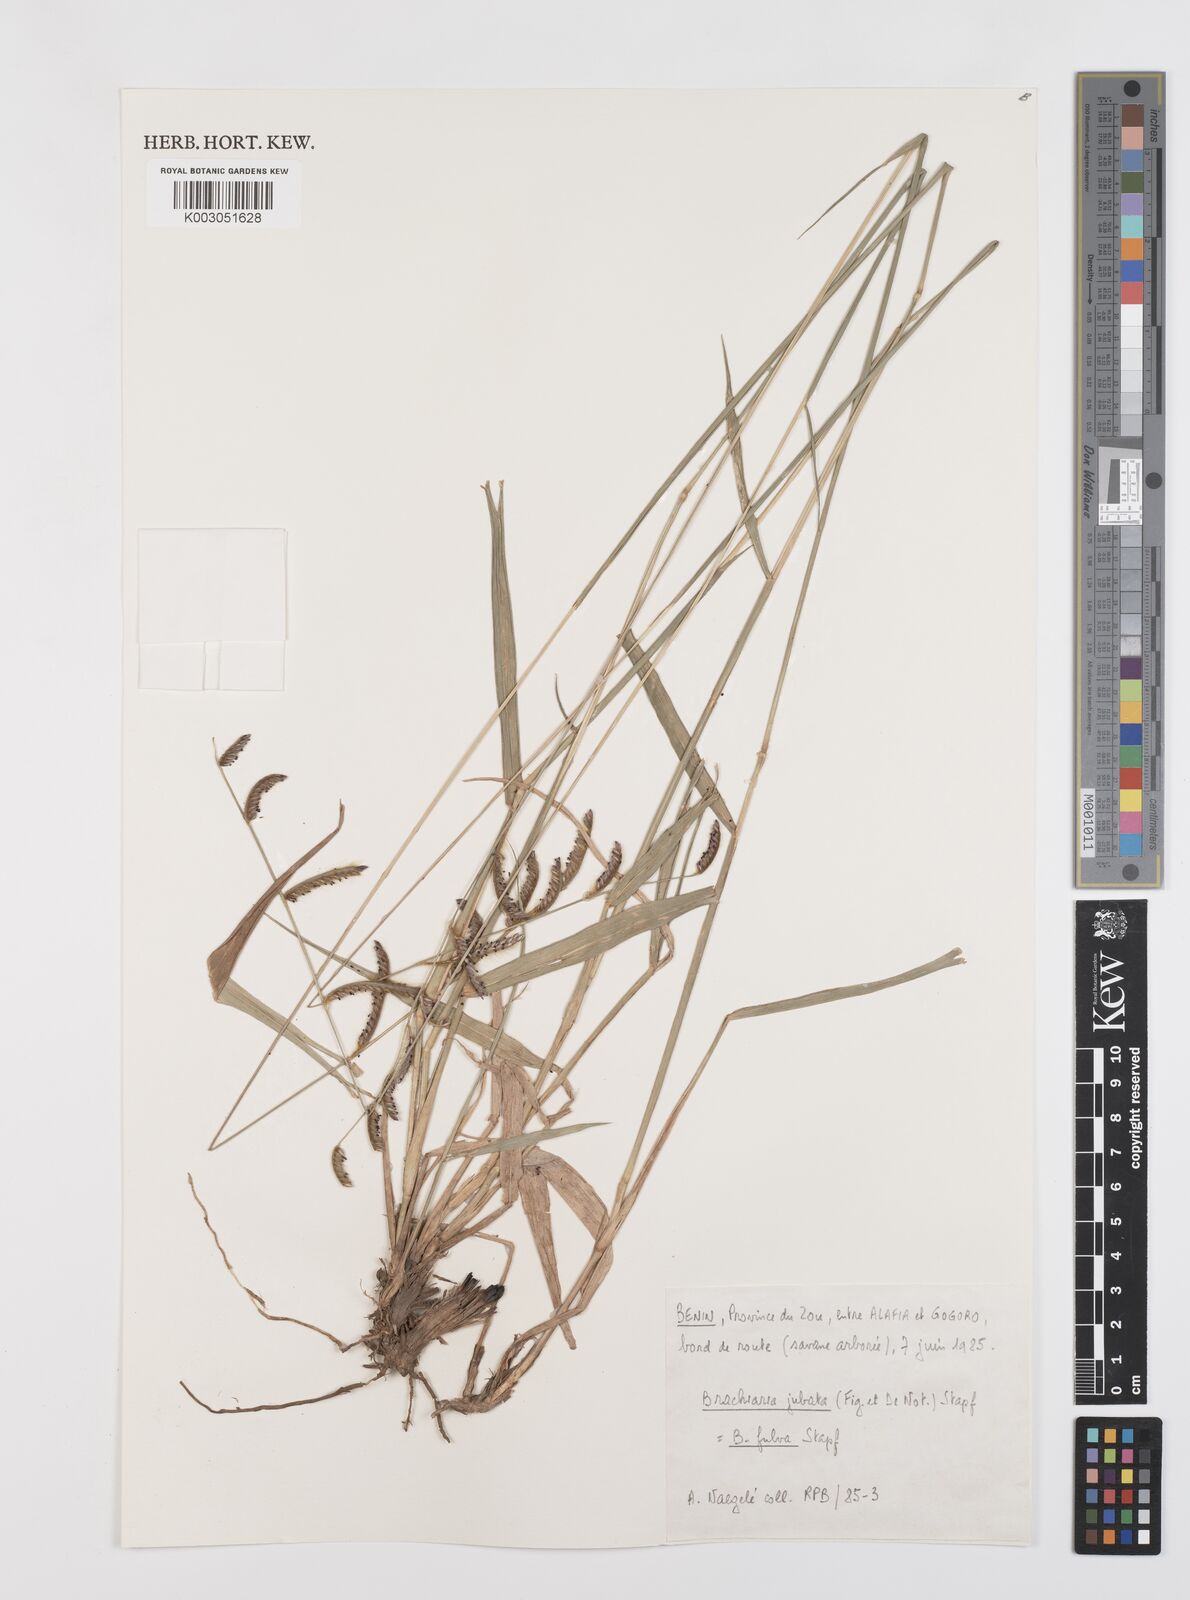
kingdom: Plantae
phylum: Tracheophyta
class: Liliopsida
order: Poales
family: Poaceae
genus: Urochloa
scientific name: Urochloa jubata
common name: Buffalograss
